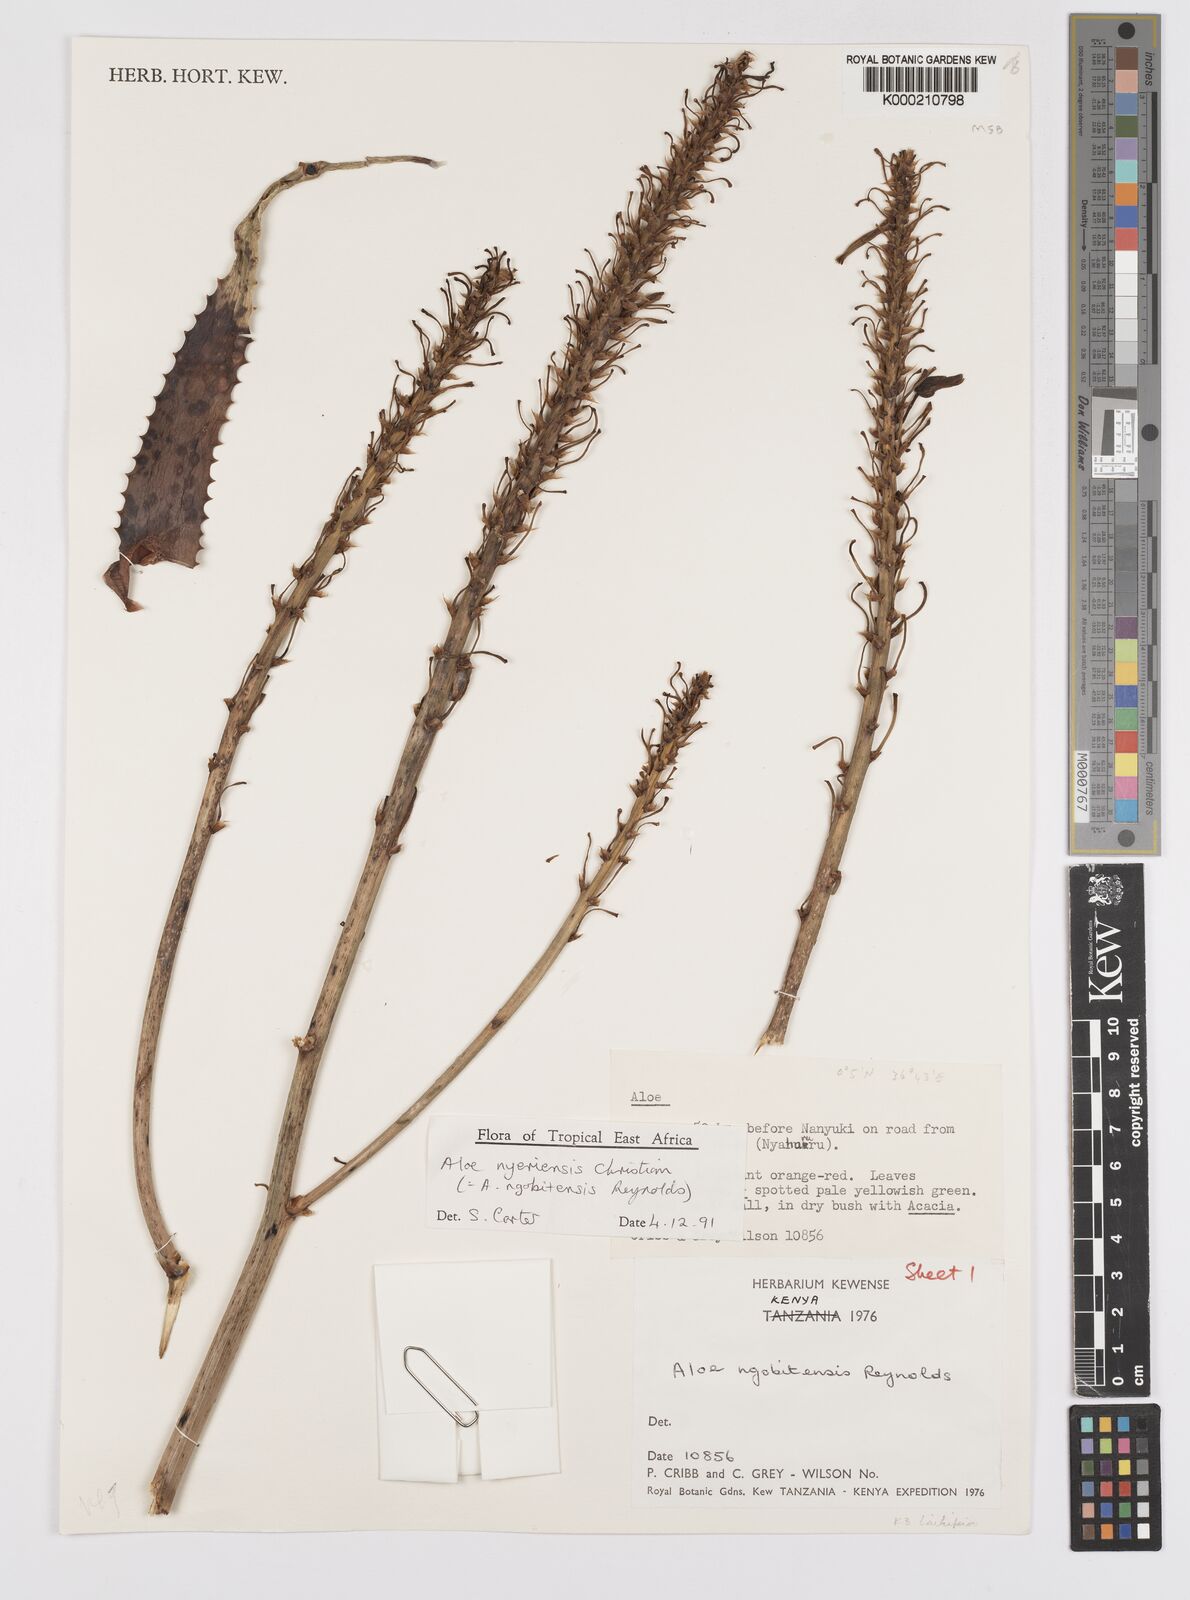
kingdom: Plantae
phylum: Tracheophyta
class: Liliopsida
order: Asparagales
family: Asphodelaceae
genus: Aloe
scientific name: Aloe nyeriensis
